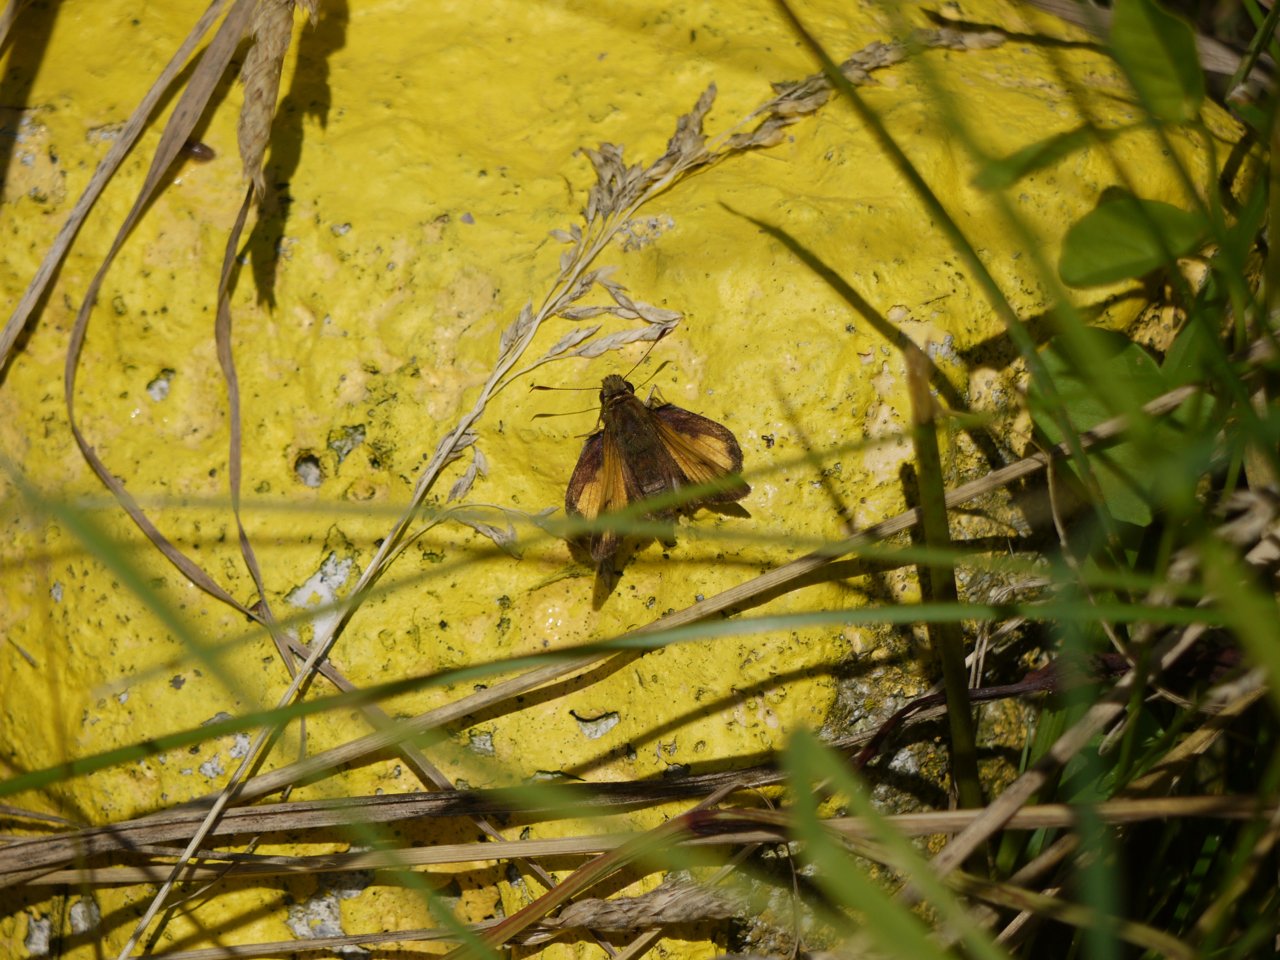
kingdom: Animalia
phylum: Arthropoda
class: Insecta
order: Lepidoptera
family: Hesperiidae
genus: Lon
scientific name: Lon hobomok
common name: Hobomok Skipper
